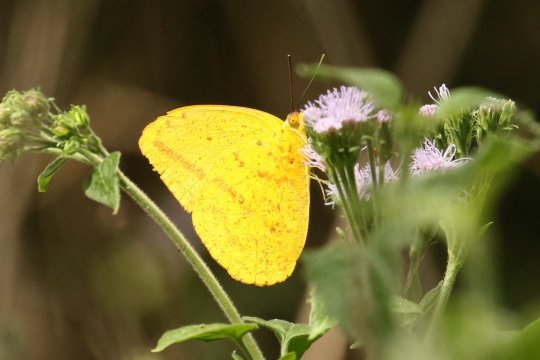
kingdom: Animalia
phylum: Arthropoda
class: Insecta
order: Lepidoptera
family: Pieridae
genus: Phoebis
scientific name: Phoebis agarithe
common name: Large Orange Sulphur
